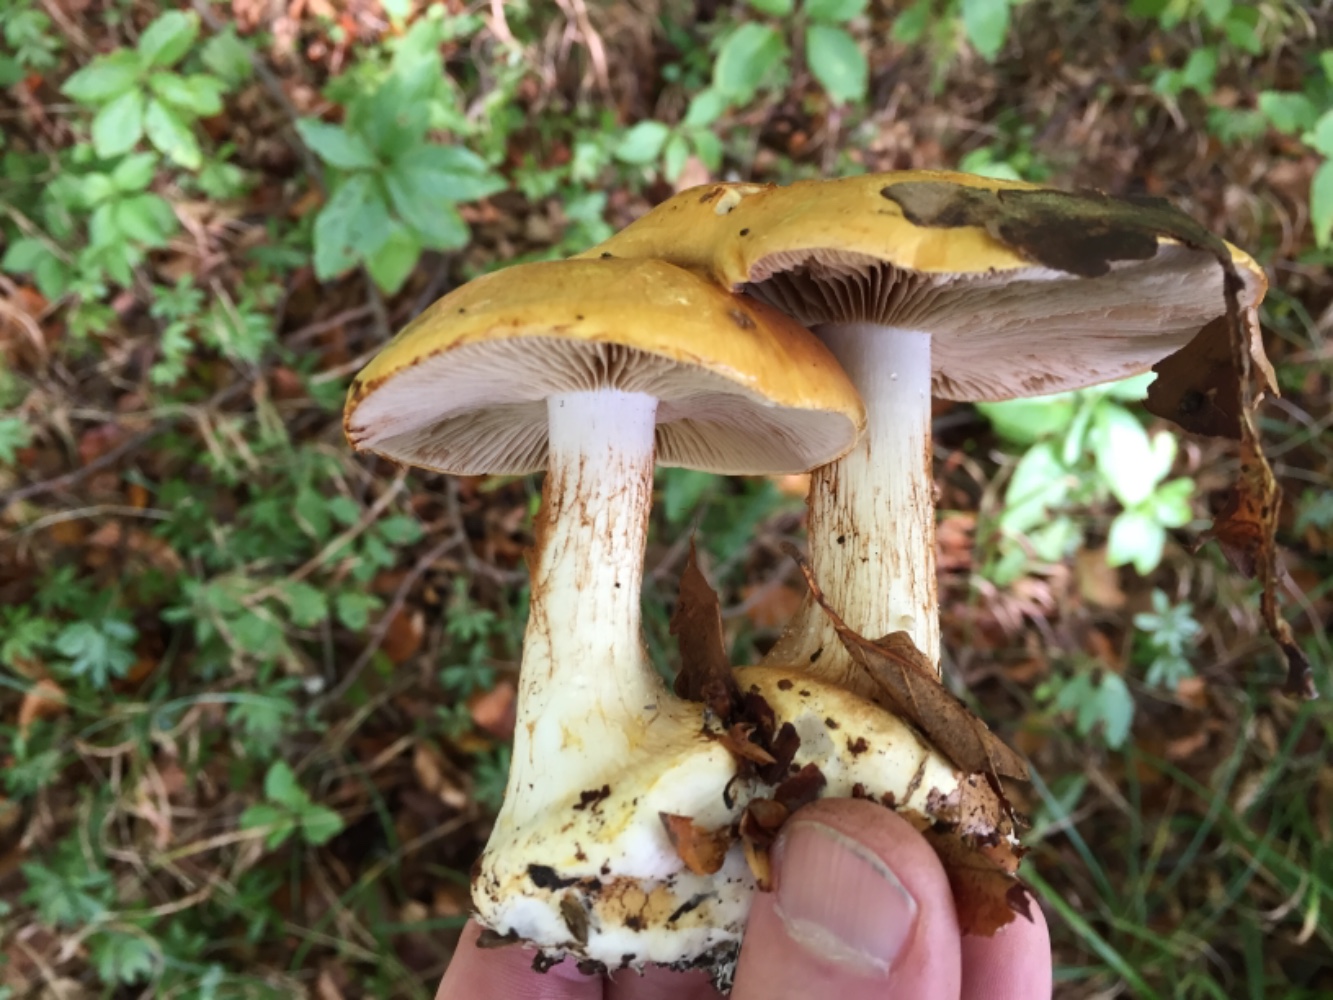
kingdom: Fungi
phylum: Basidiomycota
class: Agaricomycetes
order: Agaricales
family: Cortinariaceae
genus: Phlegmacium
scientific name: Phlegmacium rhizophorum
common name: finkornet slørhat
